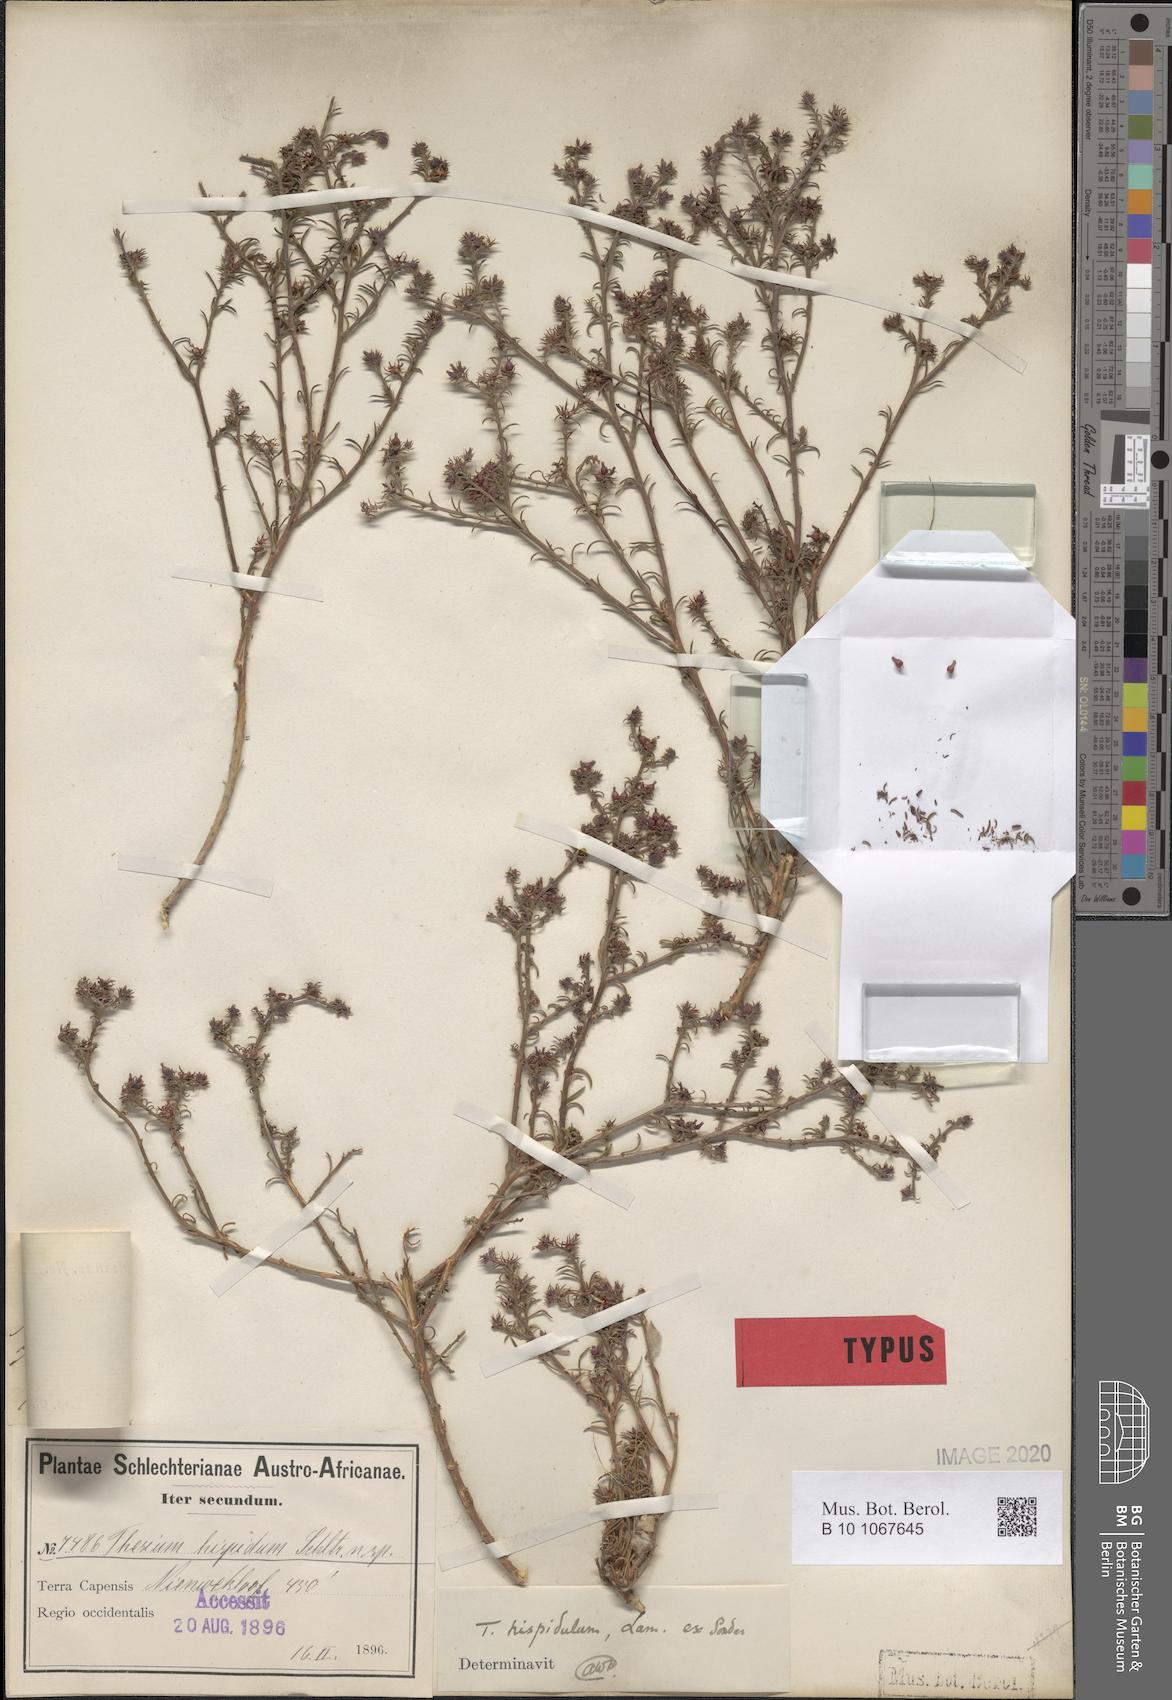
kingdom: Plantae
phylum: Tracheophyta
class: Magnoliopsida
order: Santalales
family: Thesiaceae
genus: Thesium
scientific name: Thesium hispidum
